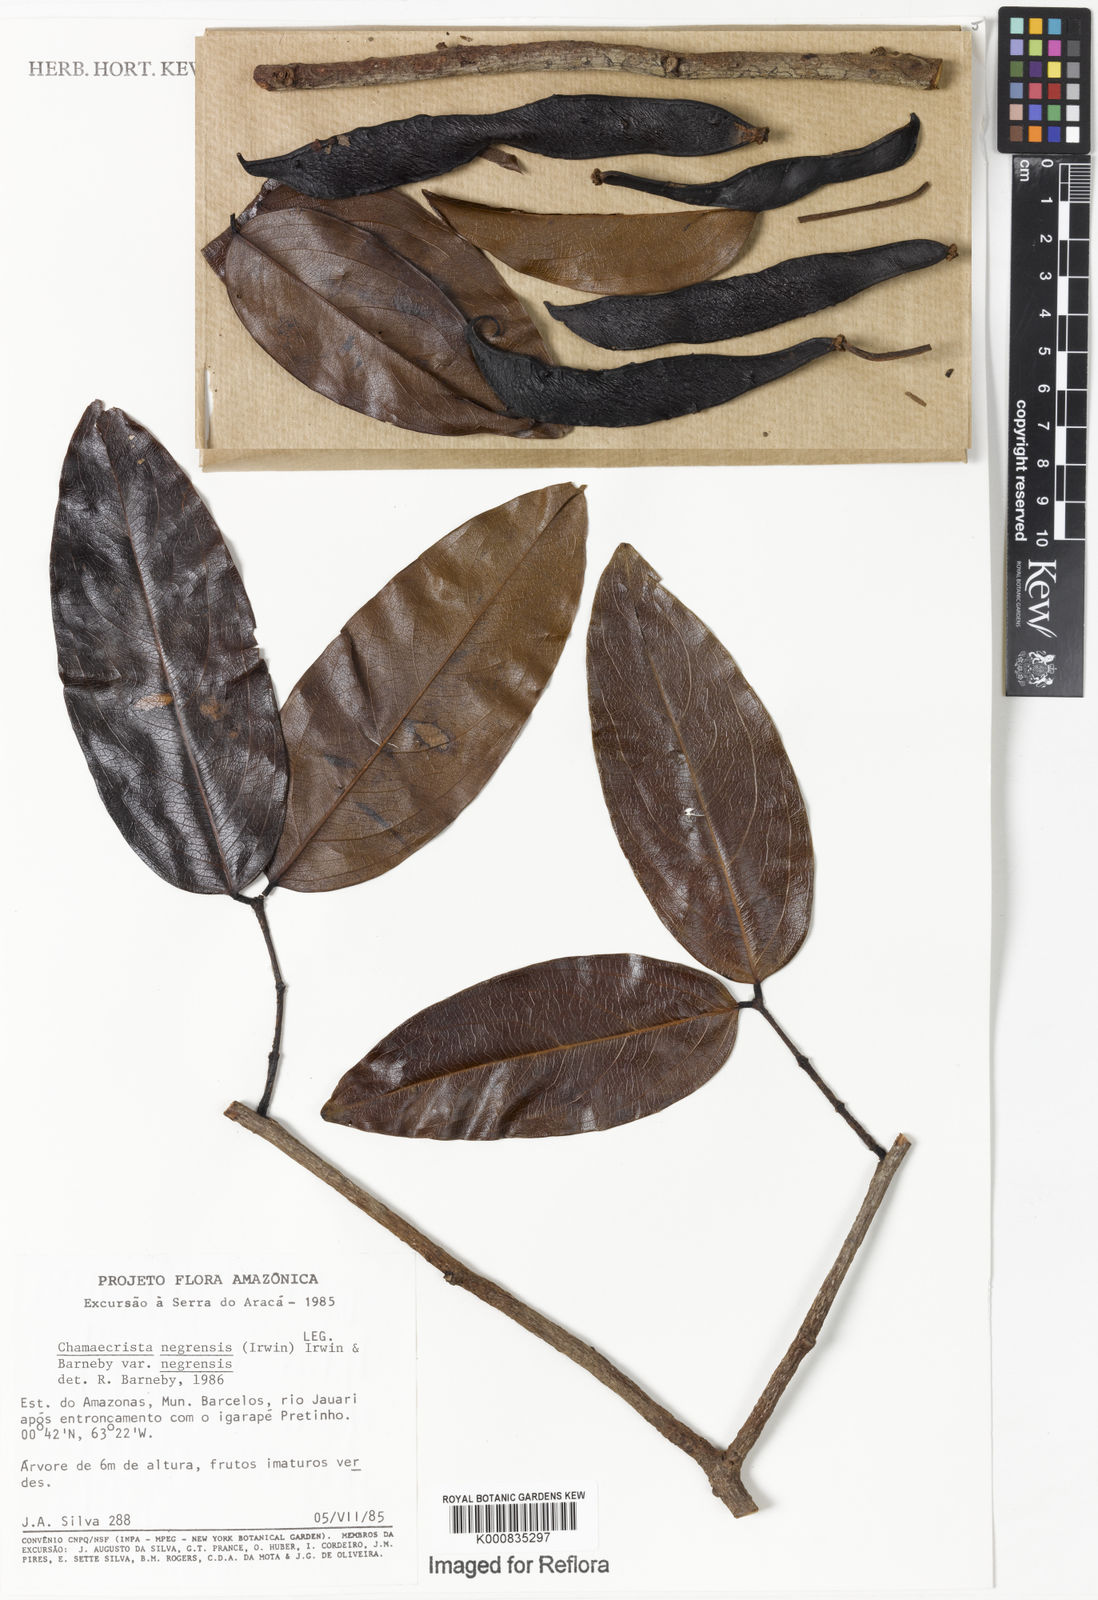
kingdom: Plantae
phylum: Tracheophyta
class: Magnoliopsida
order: Fabales
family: Fabaceae
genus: Chamaecrista
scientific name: Chamaecrista negrensis
